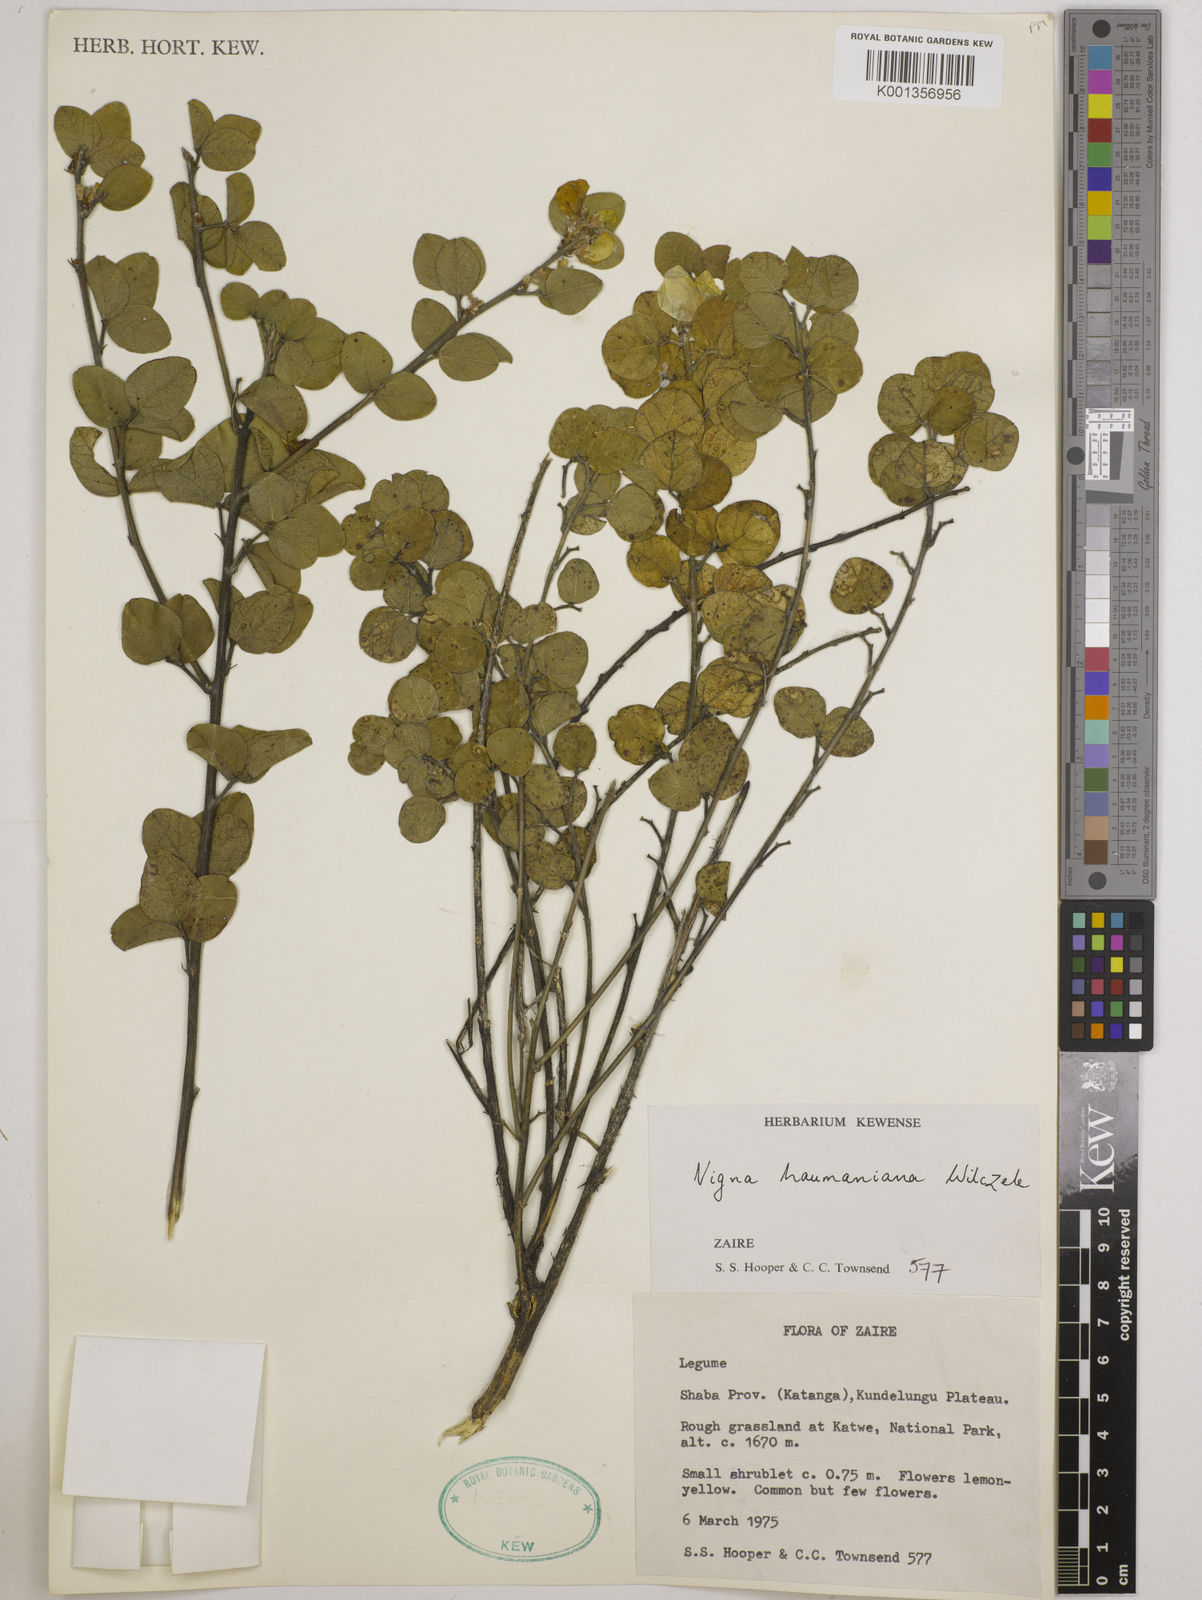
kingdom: Plantae
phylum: Tracheophyta
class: Magnoliopsida
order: Fabales
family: Fabaceae
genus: Vigna
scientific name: Vigna haumaniana
